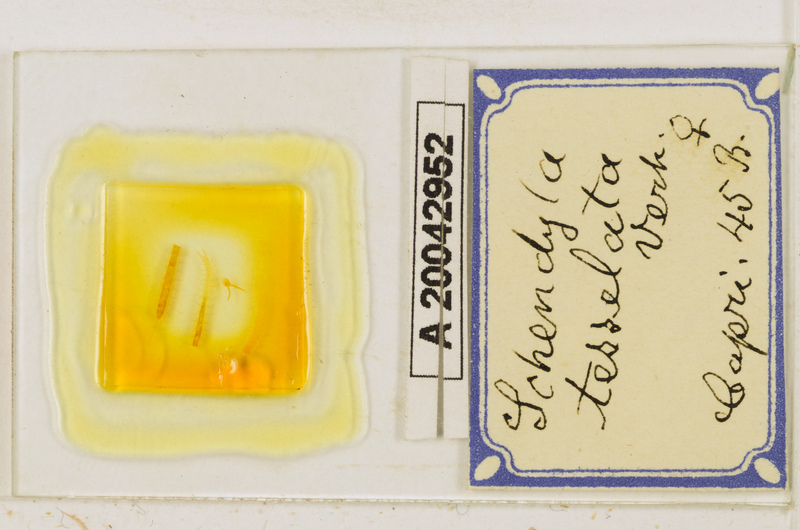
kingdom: Animalia
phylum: Arthropoda
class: Chilopoda
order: Geophilomorpha
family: Schendylidae
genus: Schendyla
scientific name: Schendyla tesselata
